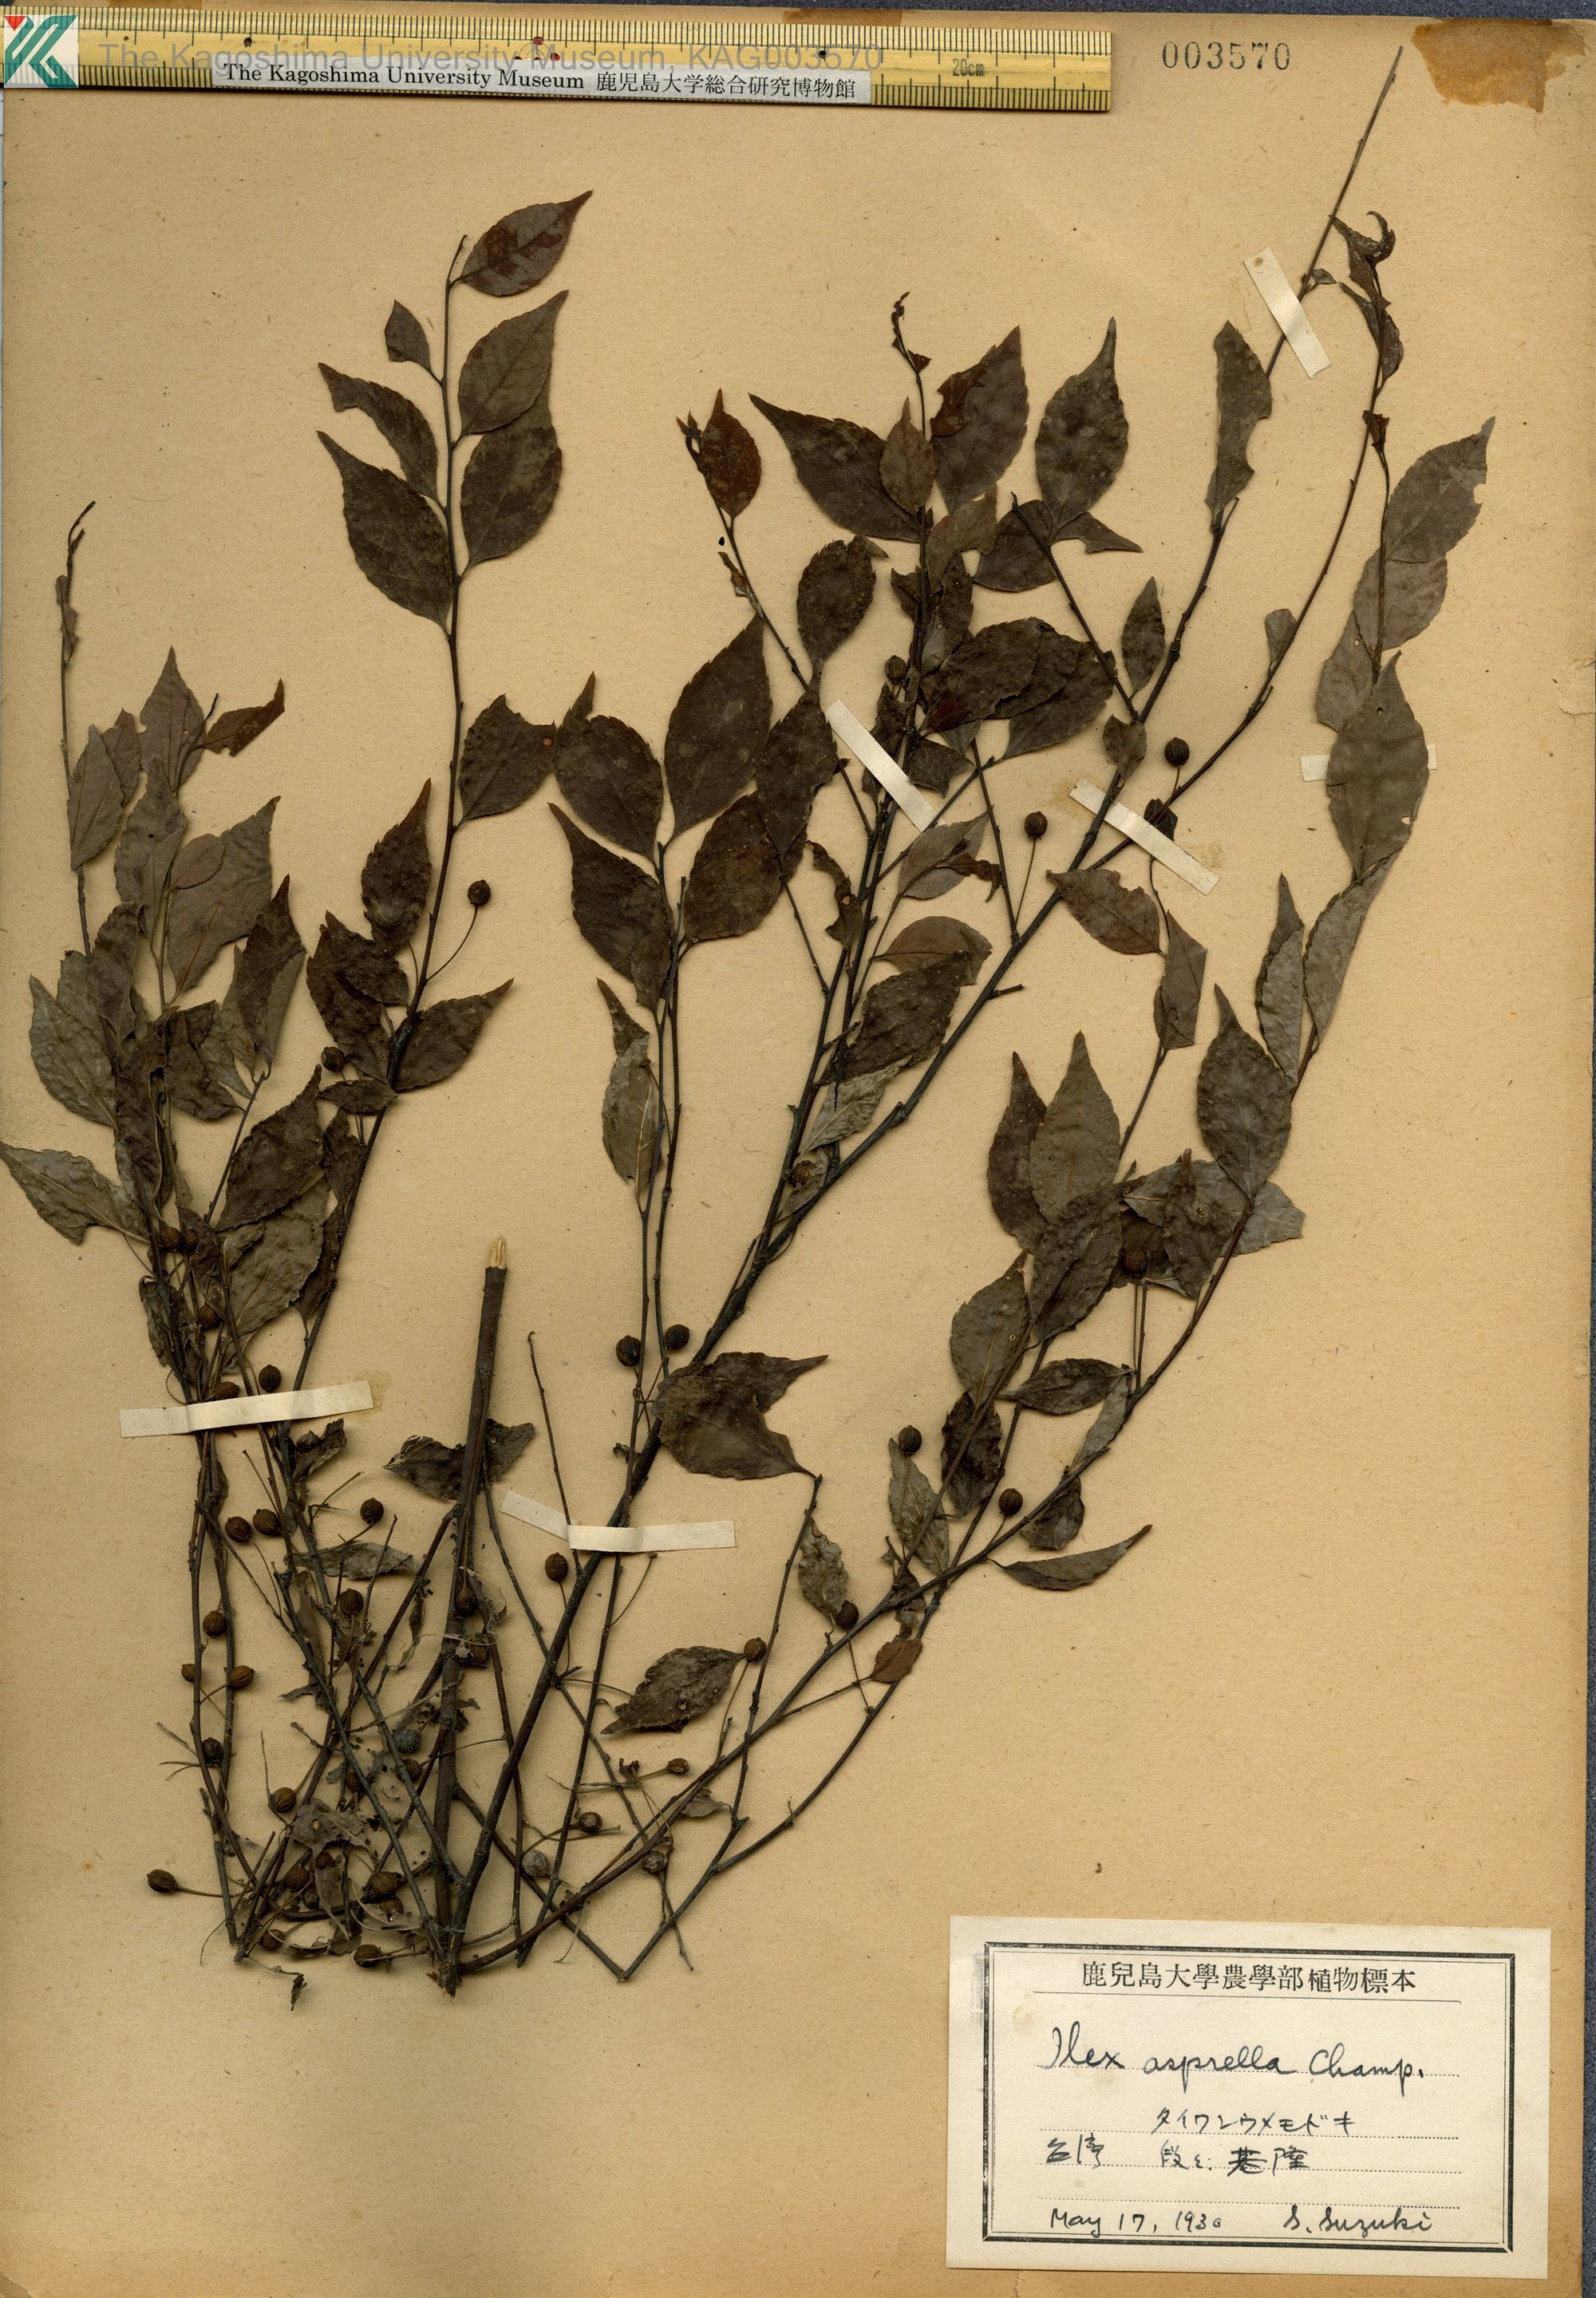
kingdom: Plantae
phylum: Tracheophyta
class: Magnoliopsida
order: Aquifoliales
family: Aquifoliaceae
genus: Ilex
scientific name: Ilex asprella
